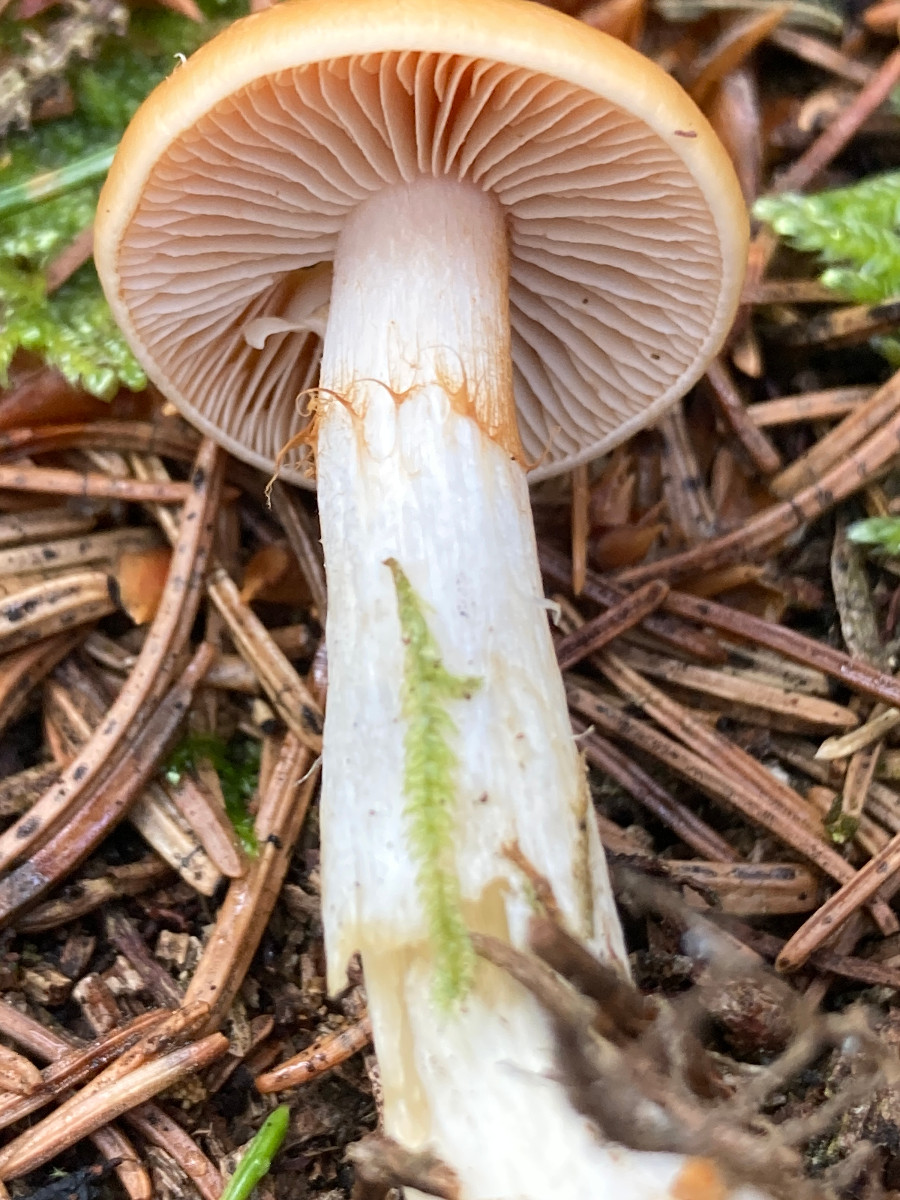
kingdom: Fungi
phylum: Basidiomycota
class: Agaricomycetes
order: Agaricales
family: Cortinariaceae
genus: Cortinarius
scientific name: Cortinarius
